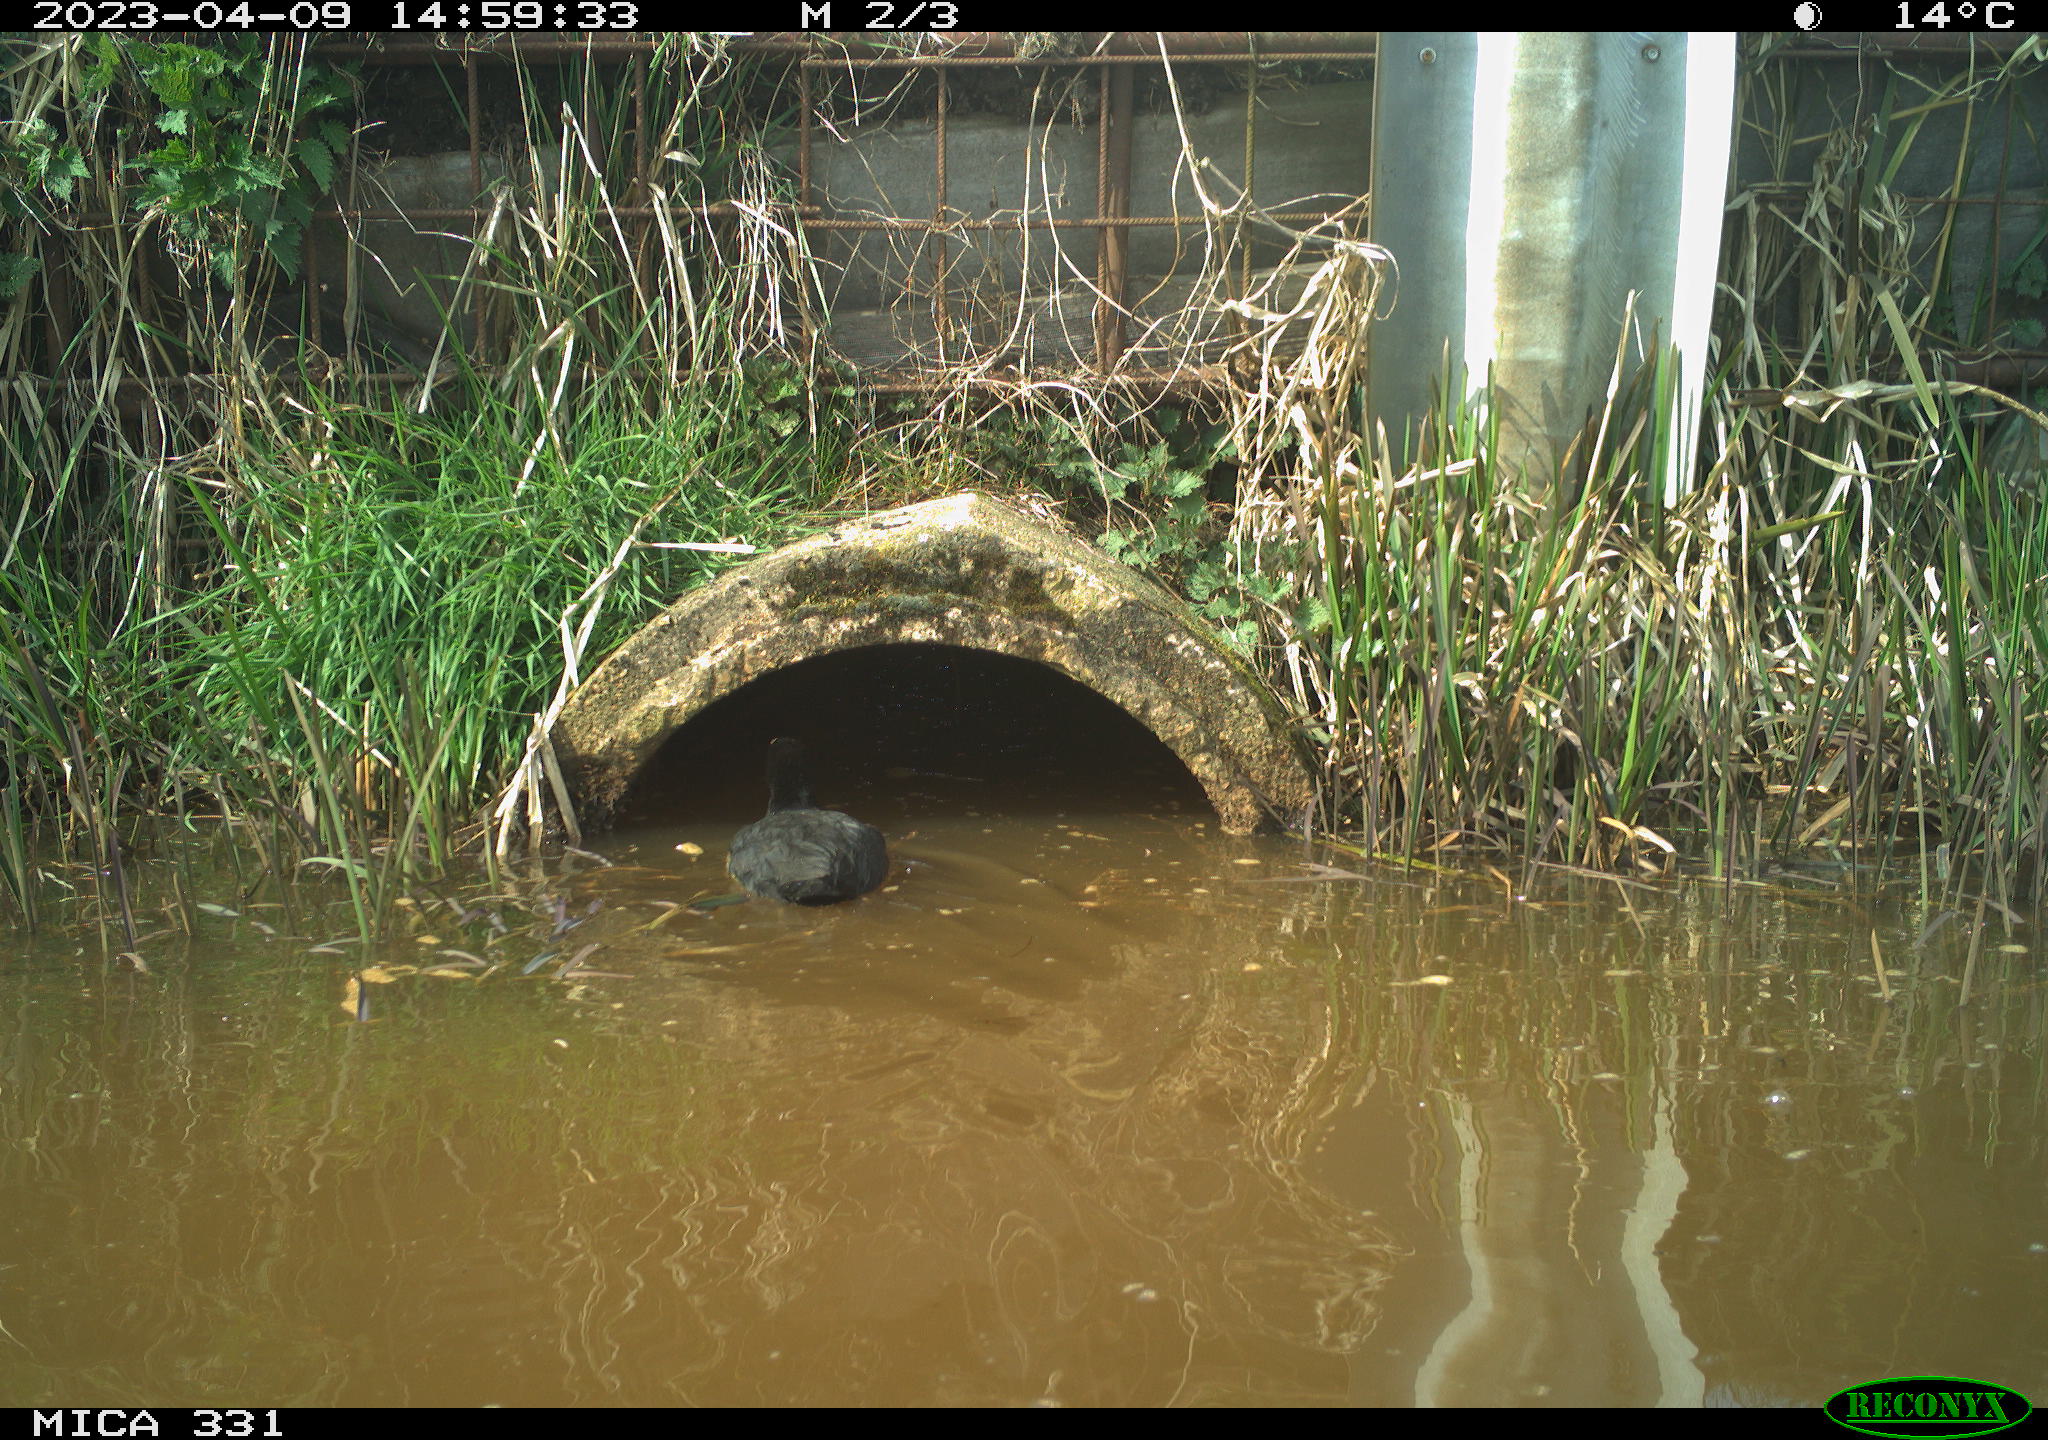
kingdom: Animalia
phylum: Chordata
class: Aves
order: Gruiformes
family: Rallidae
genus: Gallinula
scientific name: Gallinula chloropus
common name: Common moorhen
